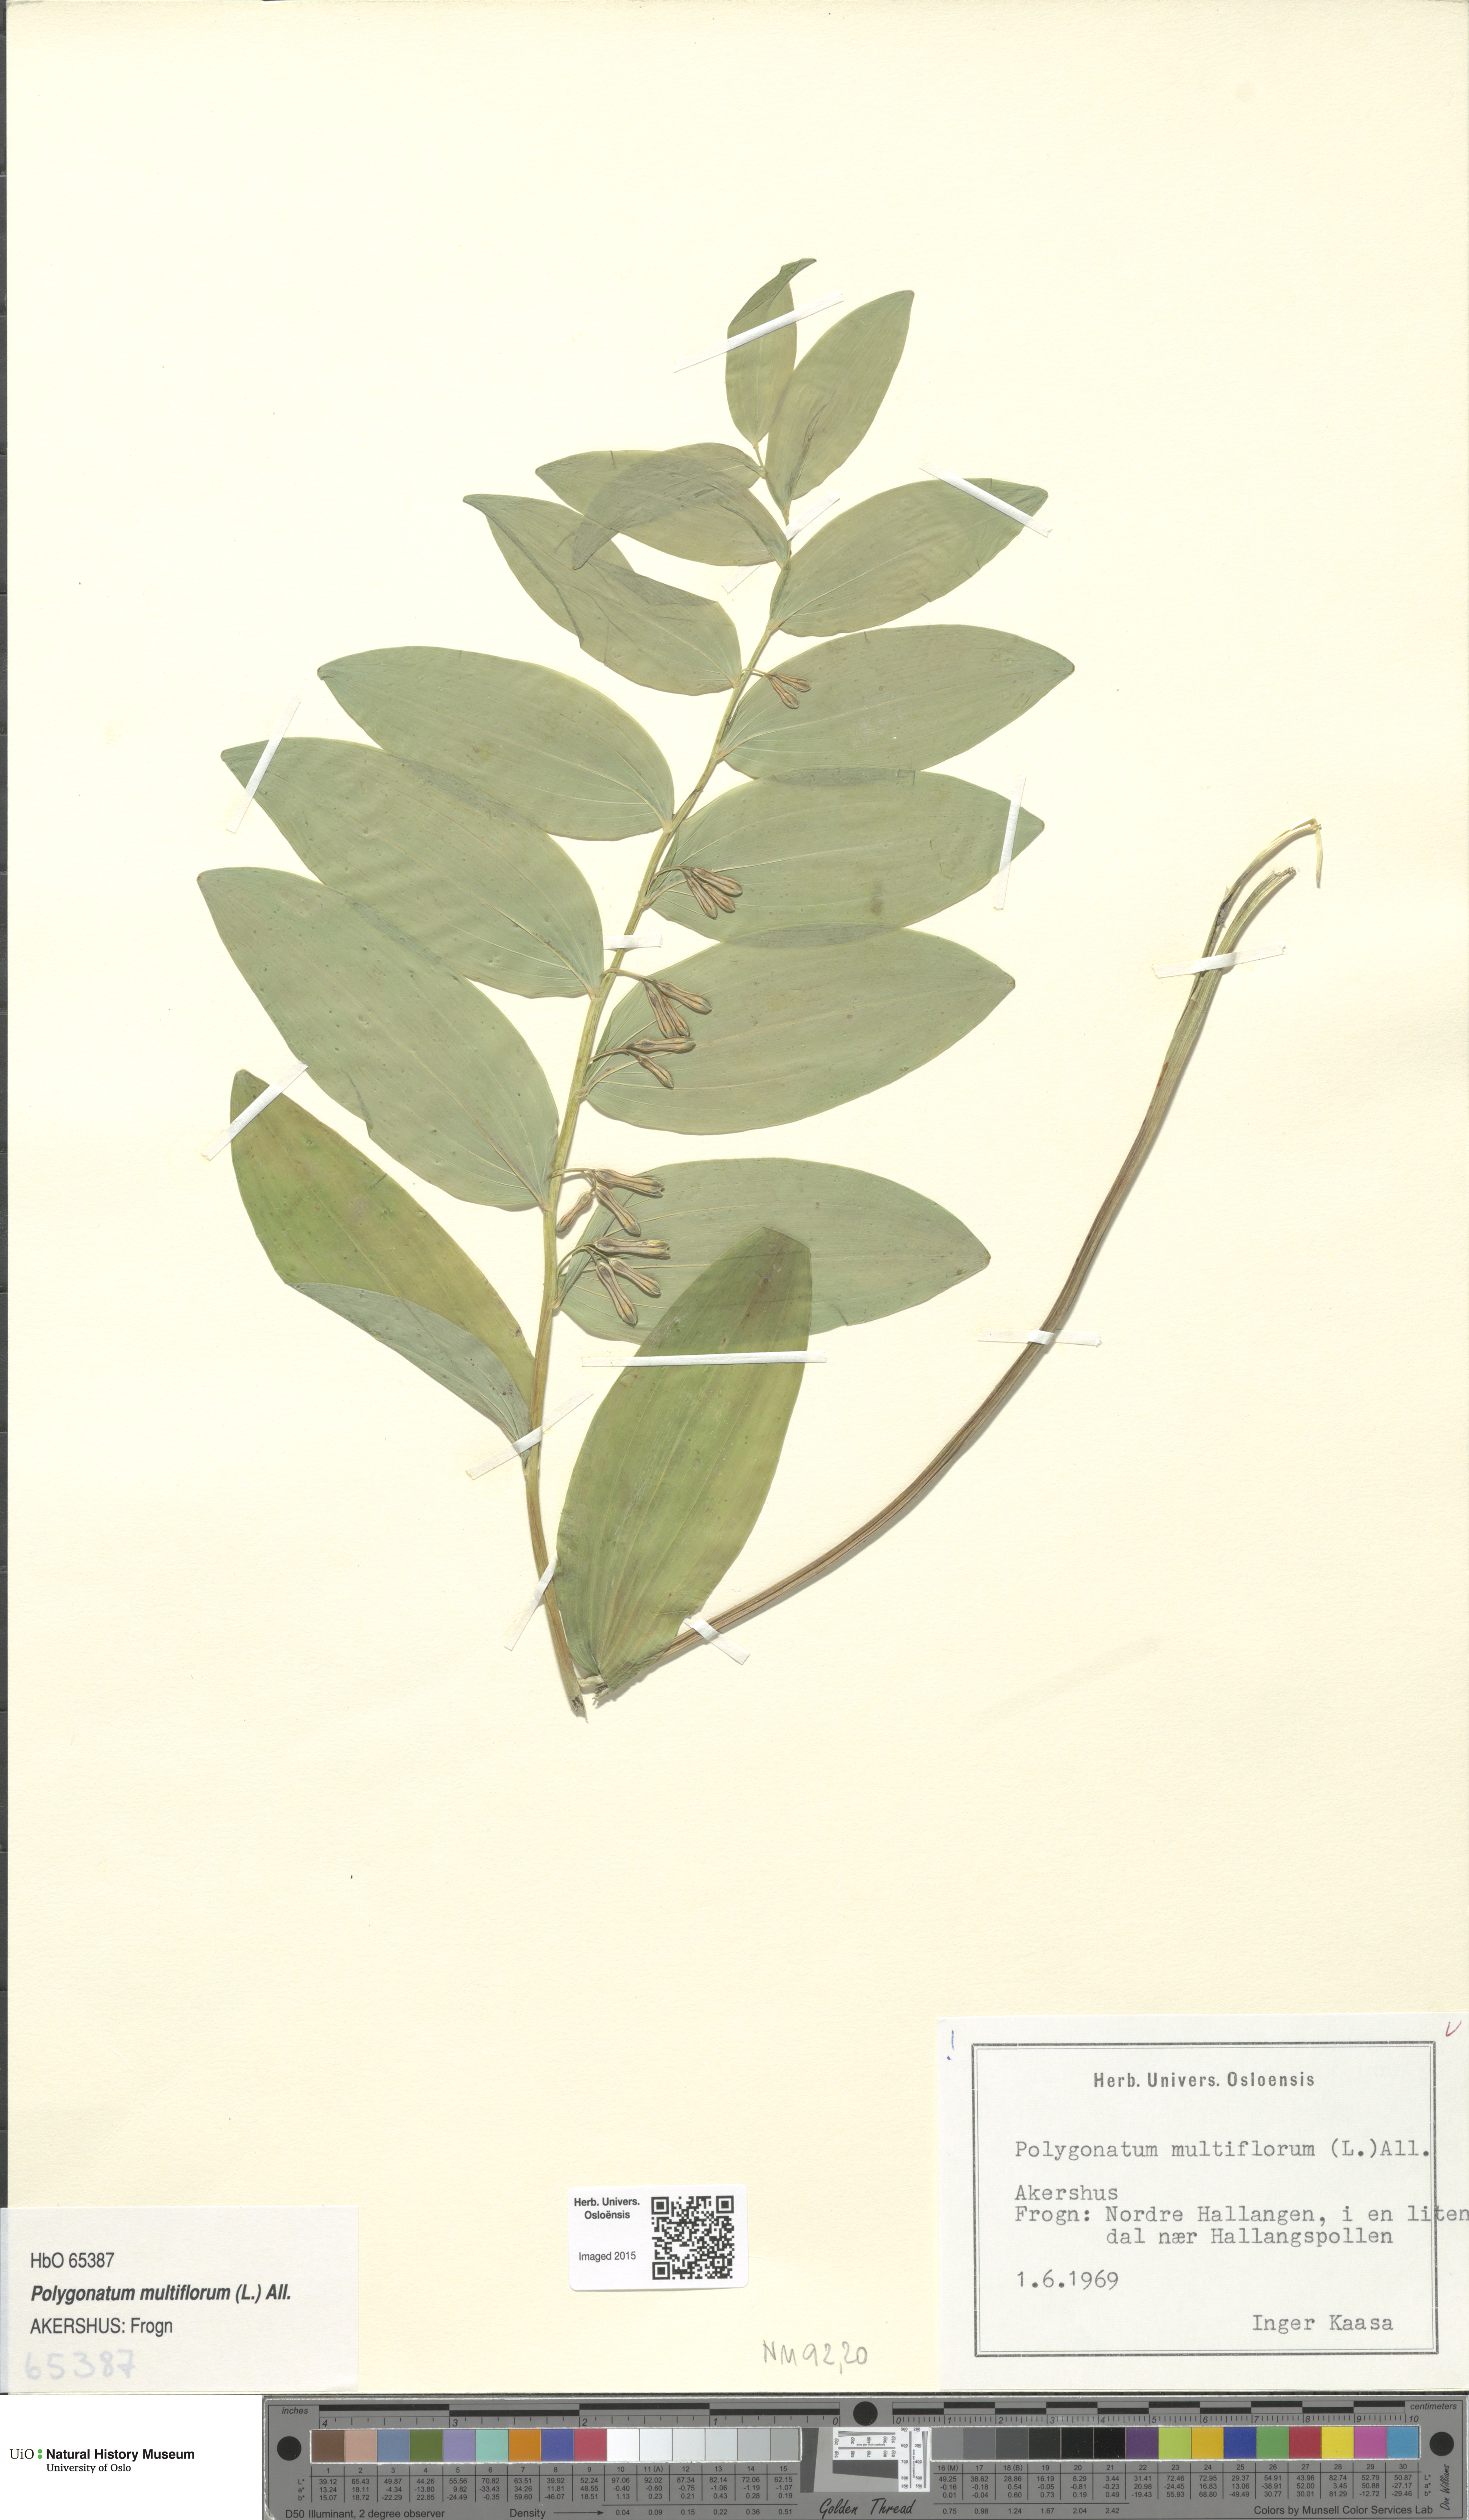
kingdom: Plantae
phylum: Tracheophyta
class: Liliopsida
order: Asparagales
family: Asparagaceae
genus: Polygonatum
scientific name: Polygonatum multiflorum
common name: Solomon's-seal
